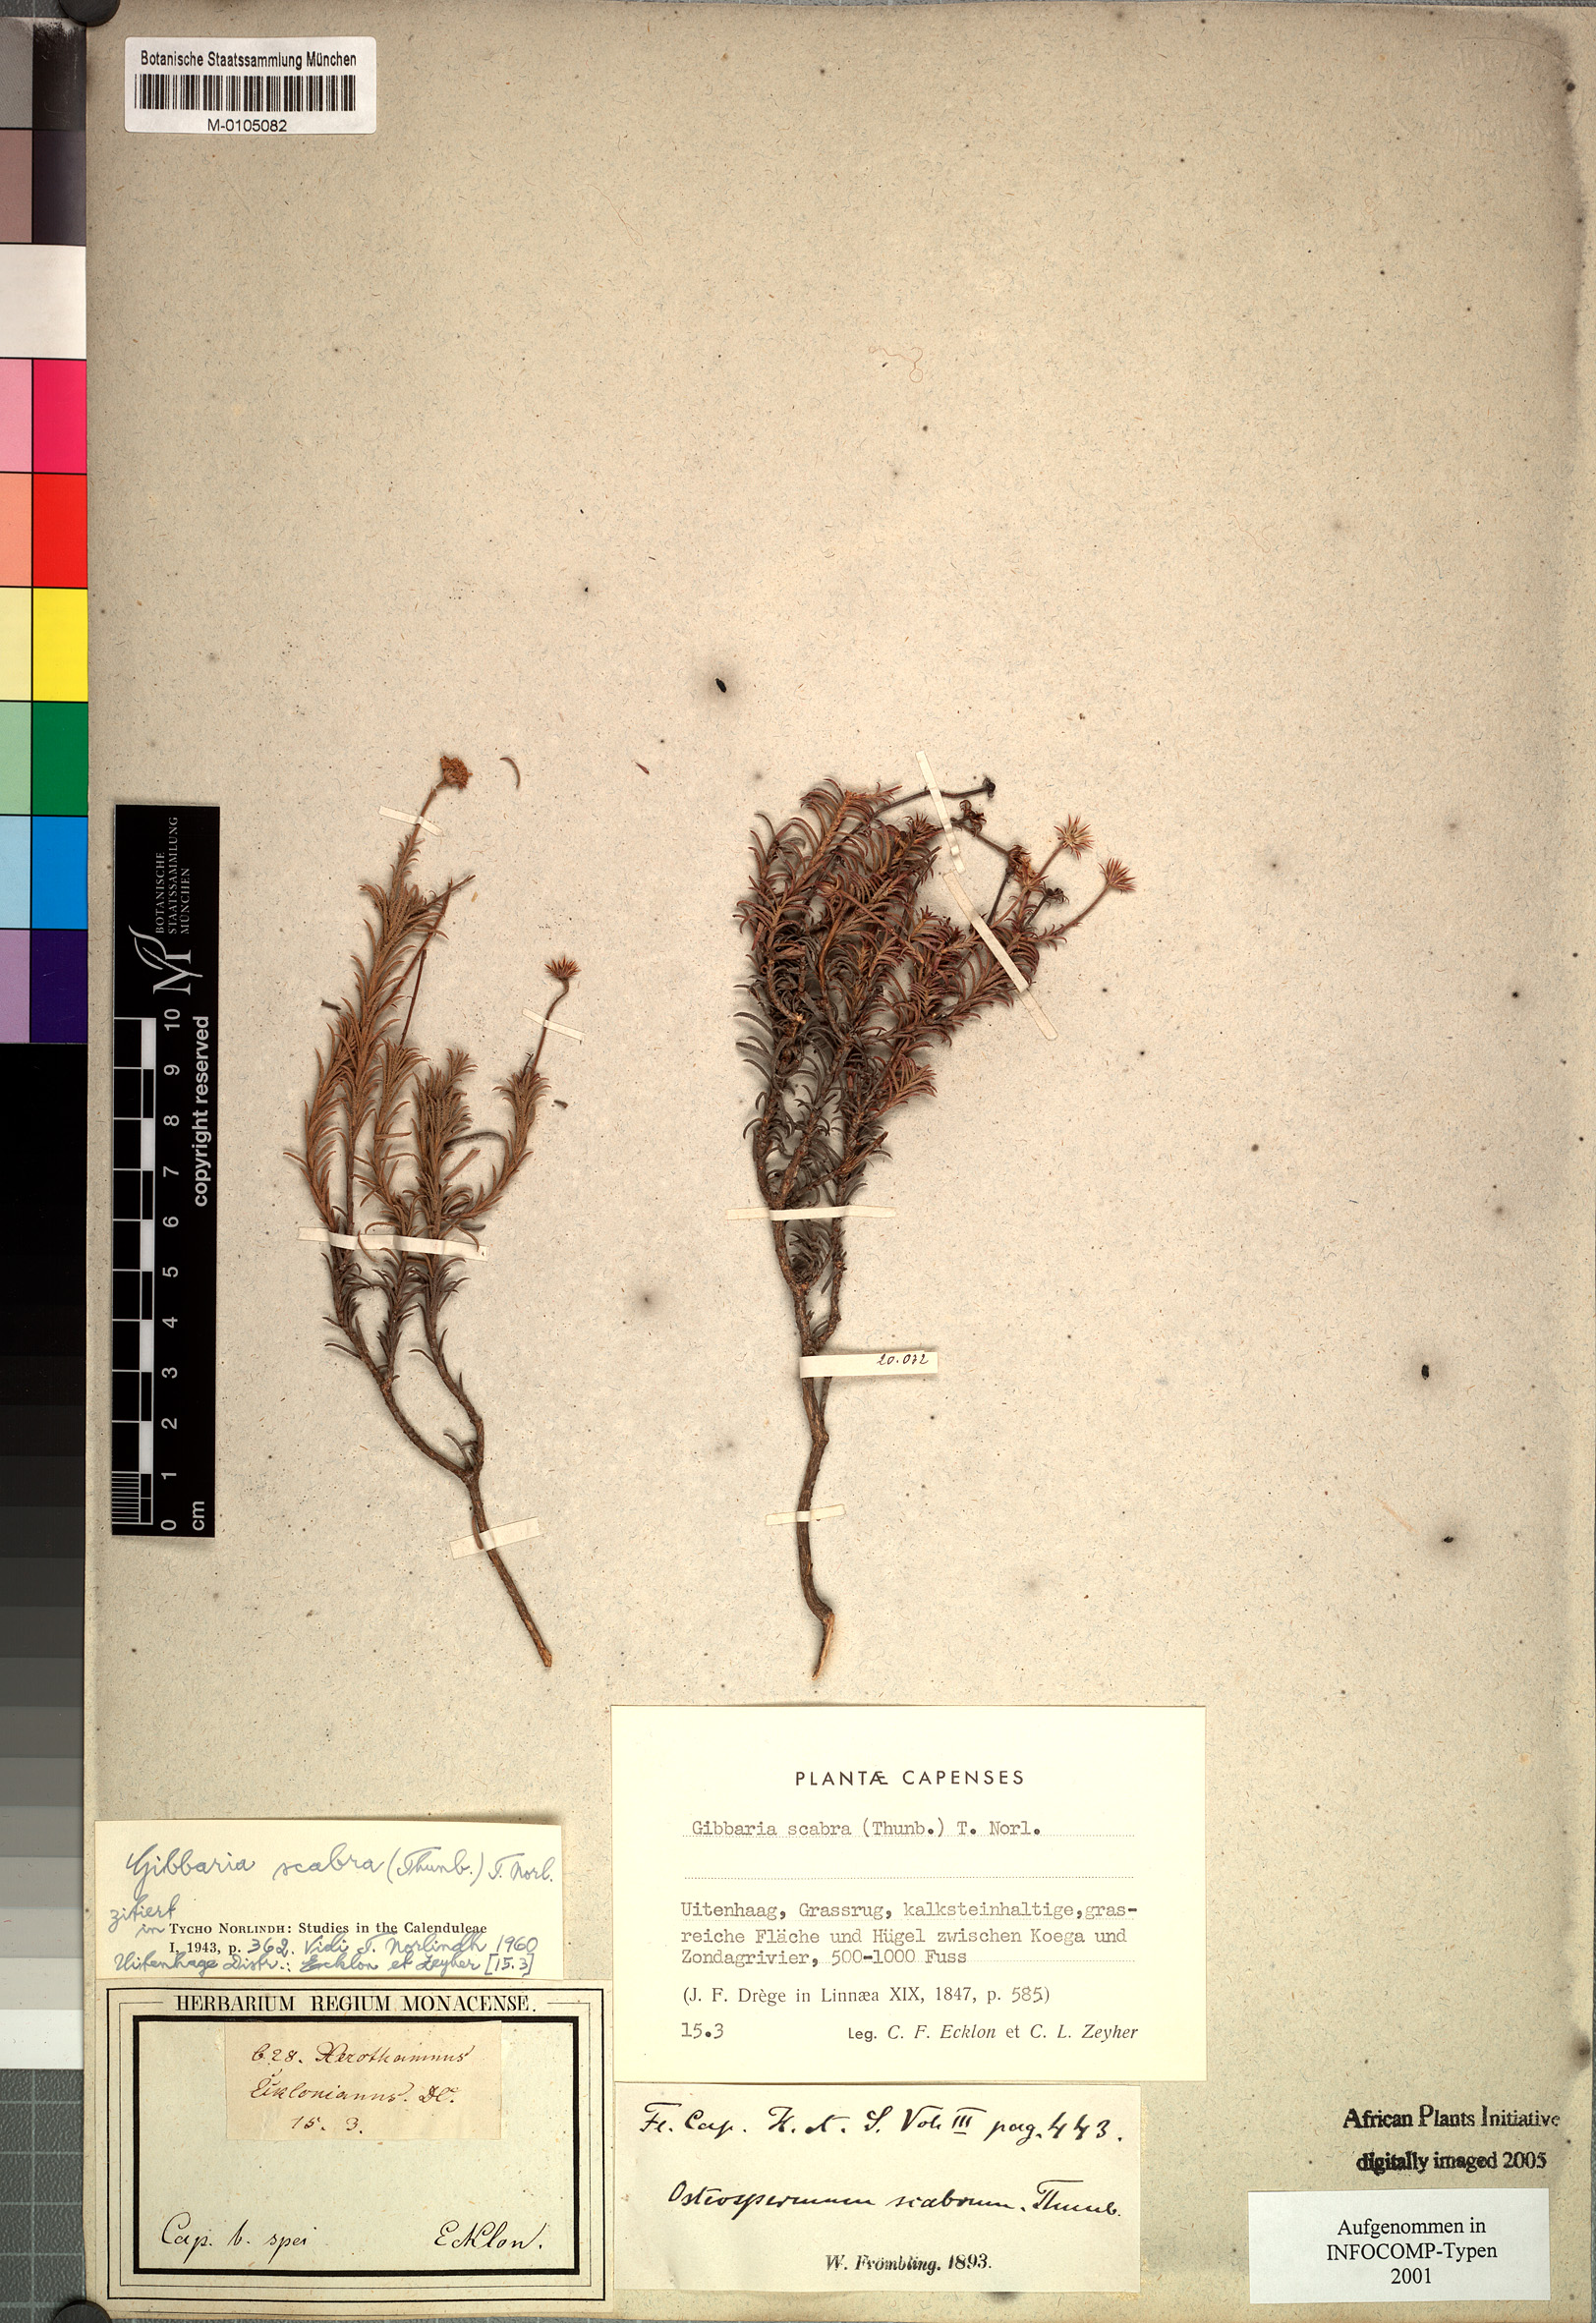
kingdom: Plantae
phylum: Tracheophyta
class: Magnoliopsida
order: Asterales
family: Asteraceae
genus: Gibbaria
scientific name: Gibbaria scabra
